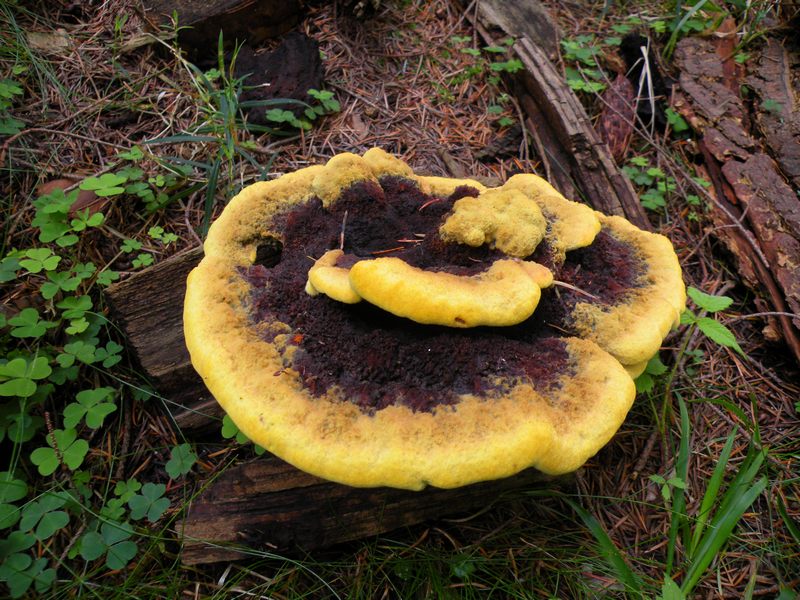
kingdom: Fungi
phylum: Basidiomycota
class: Agaricomycetes
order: Polyporales
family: Laetiporaceae
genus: Phaeolus
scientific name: Phaeolus schweinitzii
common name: brunporesvamp
